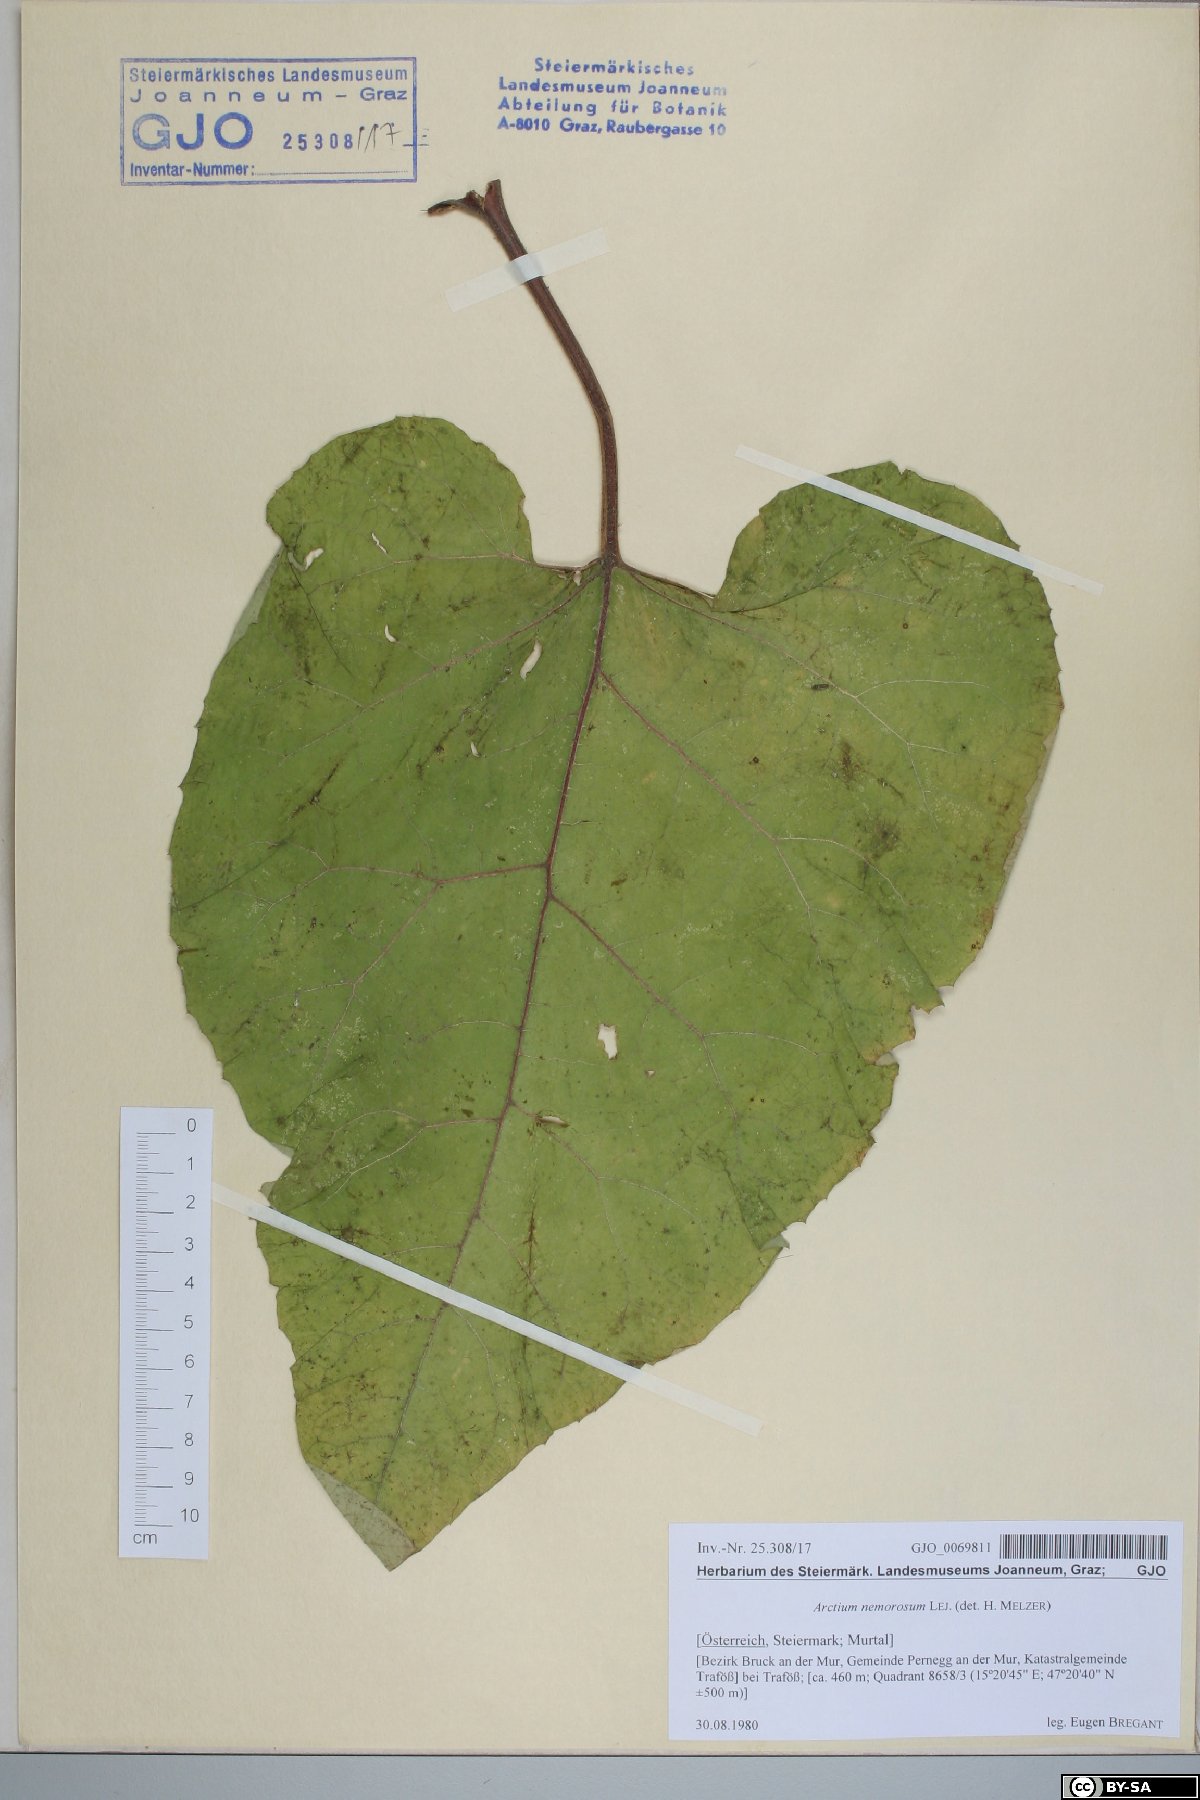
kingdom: Plantae
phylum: Tracheophyta
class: Magnoliopsida
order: Asterales
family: Asteraceae
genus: Arctium
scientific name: Arctium nemorosum
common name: Wood burdock
